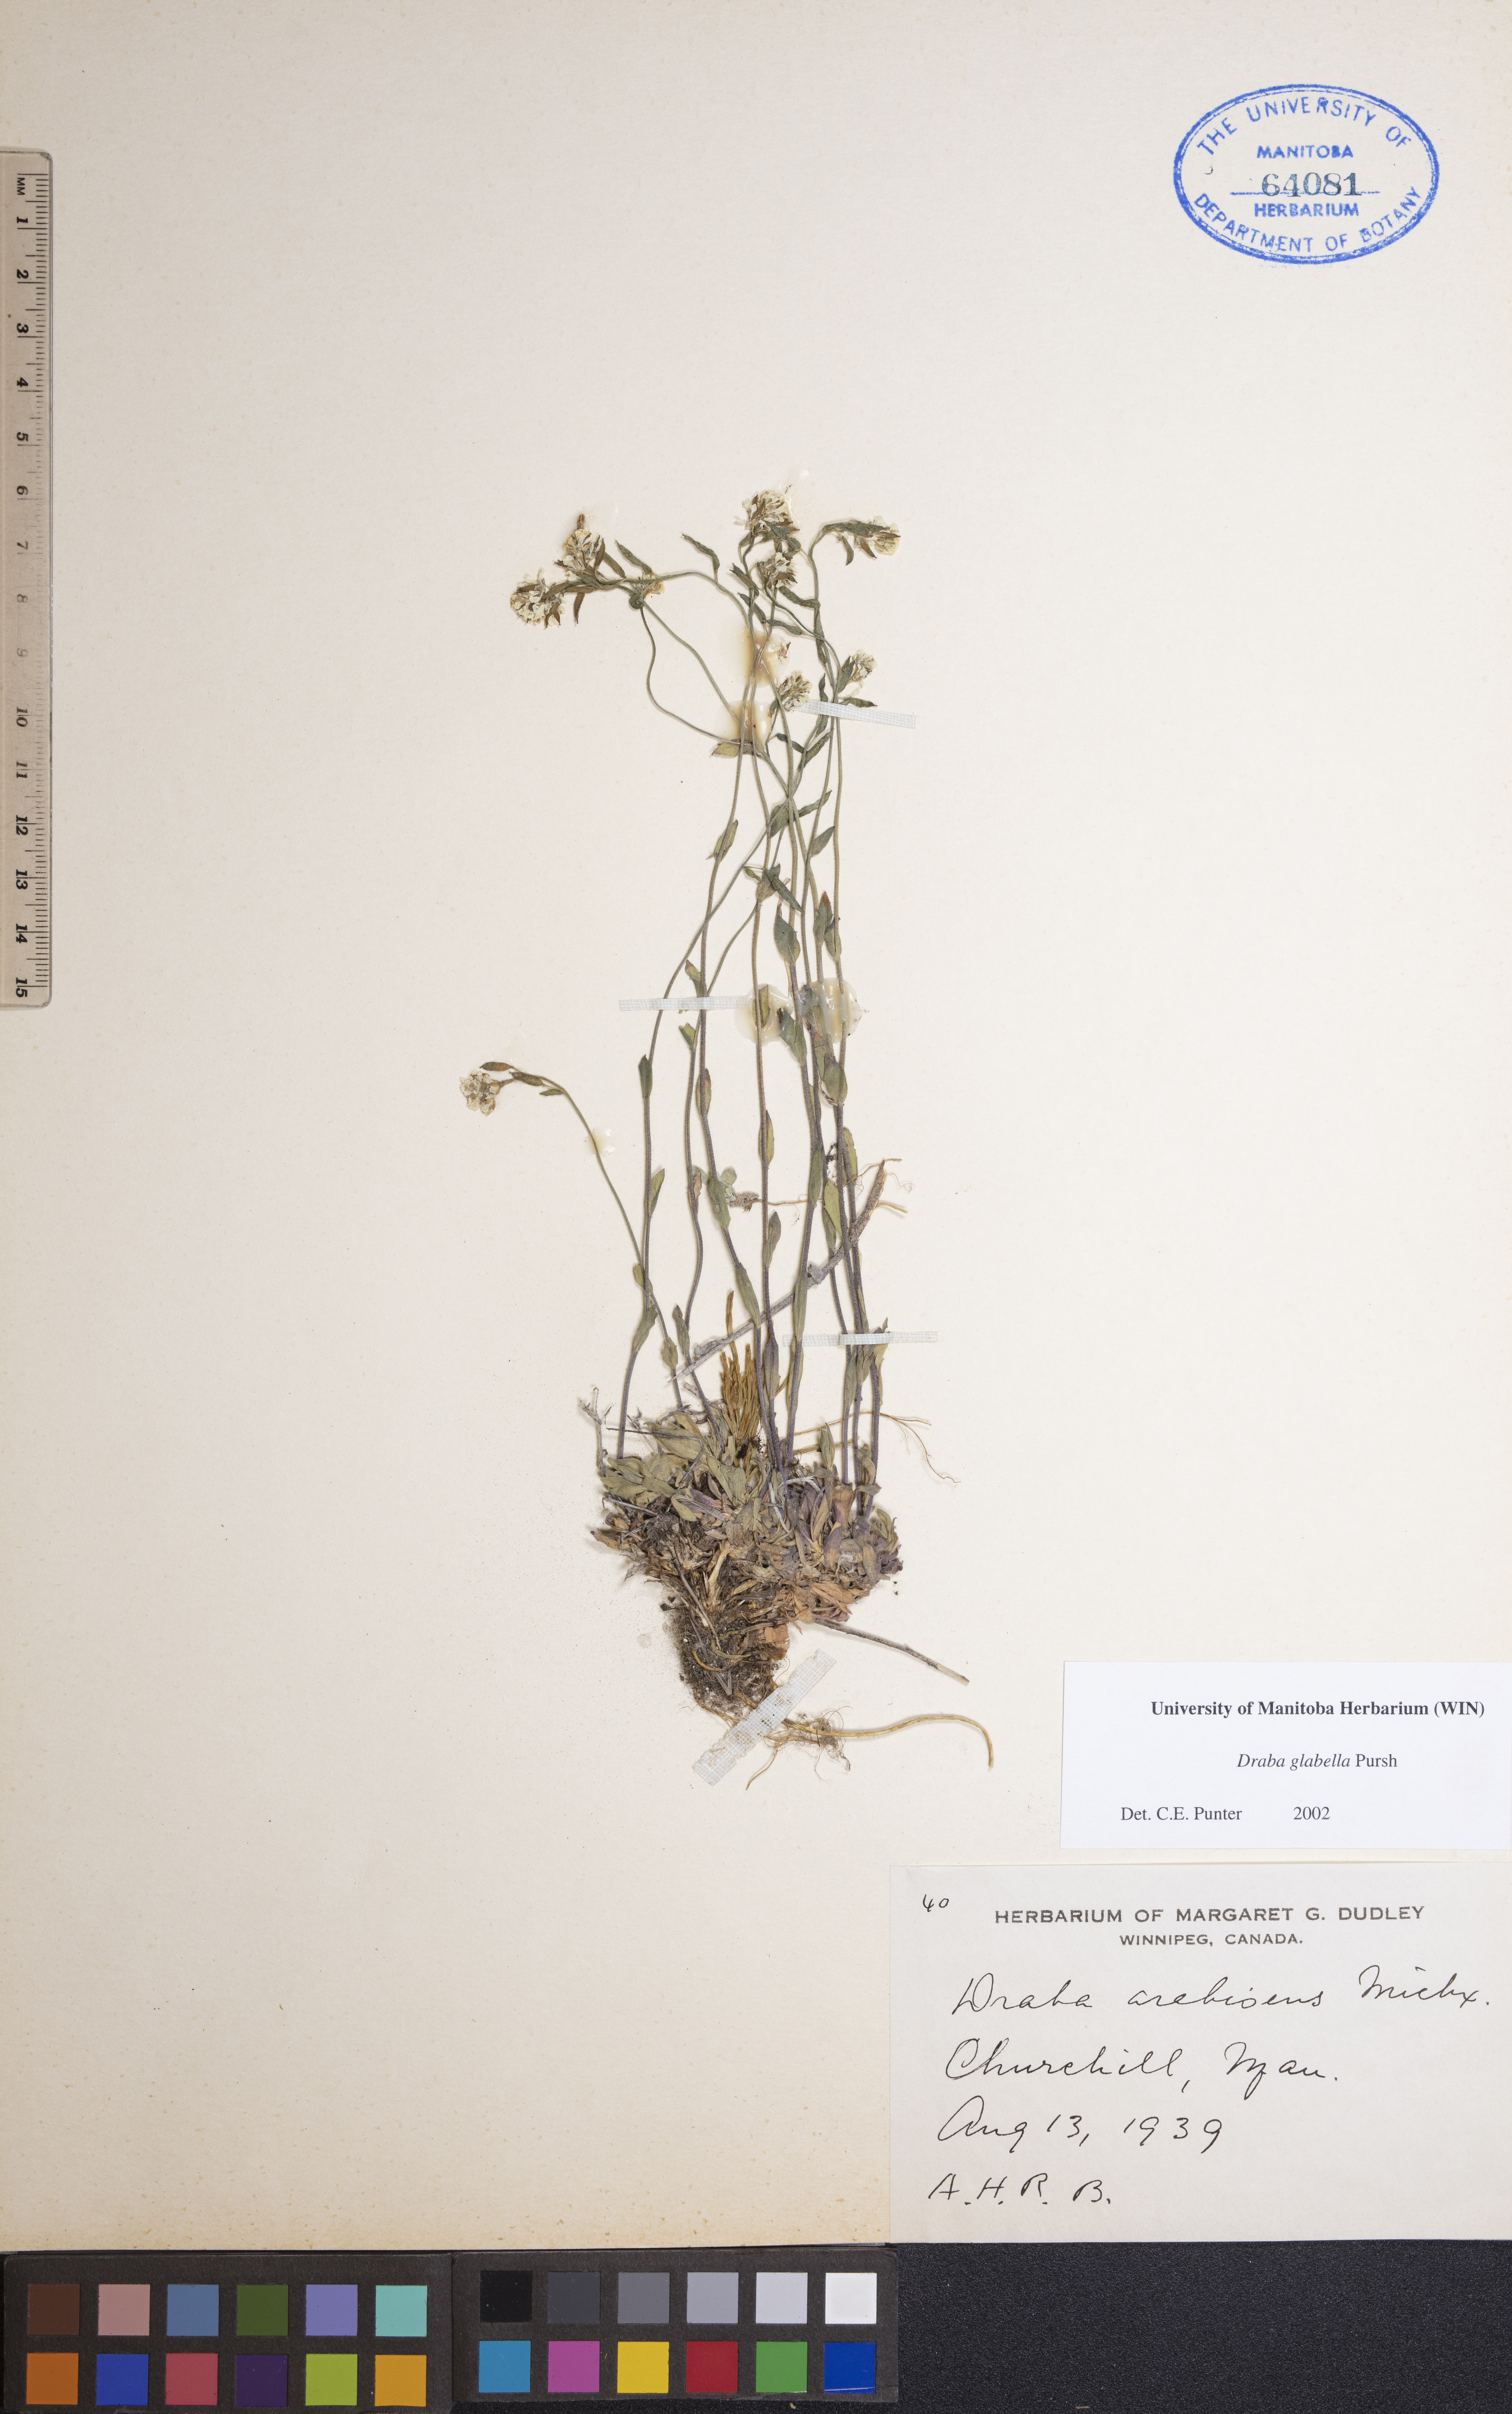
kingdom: Plantae
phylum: Tracheophyta
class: Magnoliopsida
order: Brassicales
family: Brassicaceae
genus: Draba
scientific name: Draba glabella
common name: Glaucous draba
